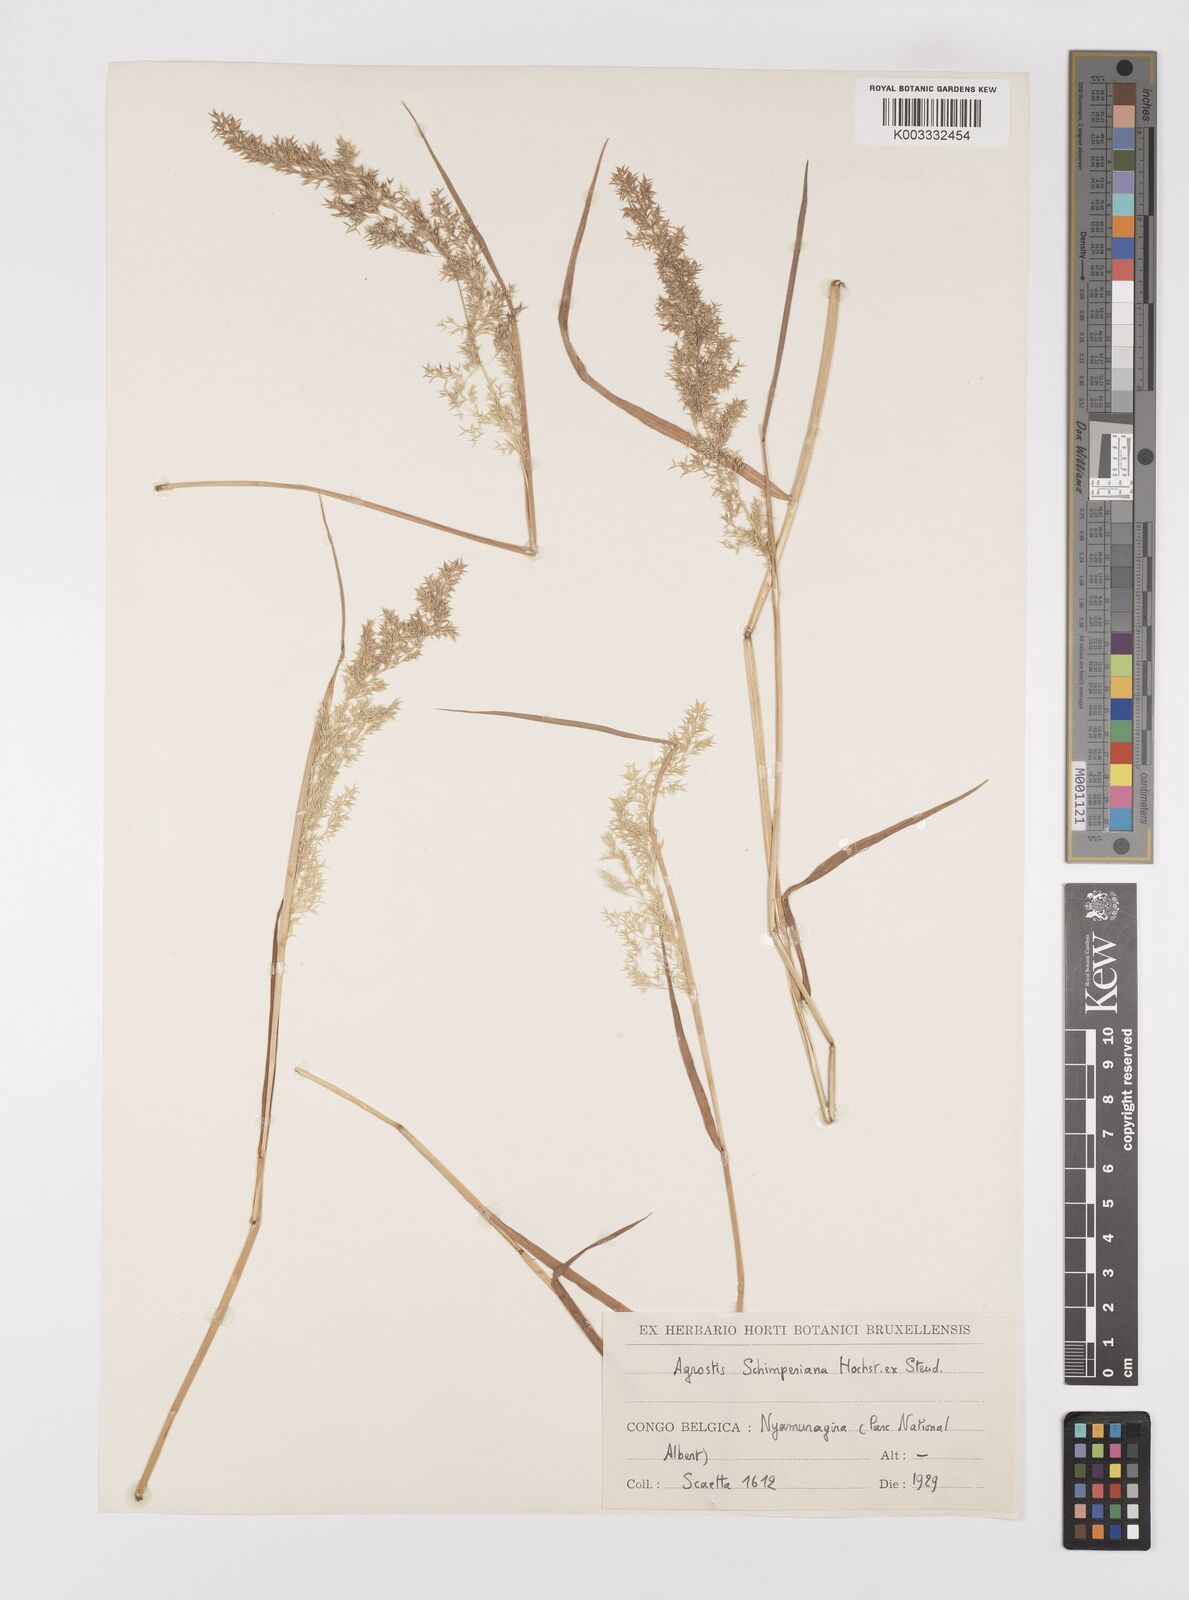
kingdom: Plantae
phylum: Tracheophyta
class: Liliopsida
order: Poales
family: Poaceae
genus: Polypogon
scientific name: Polypogon schimperianus
